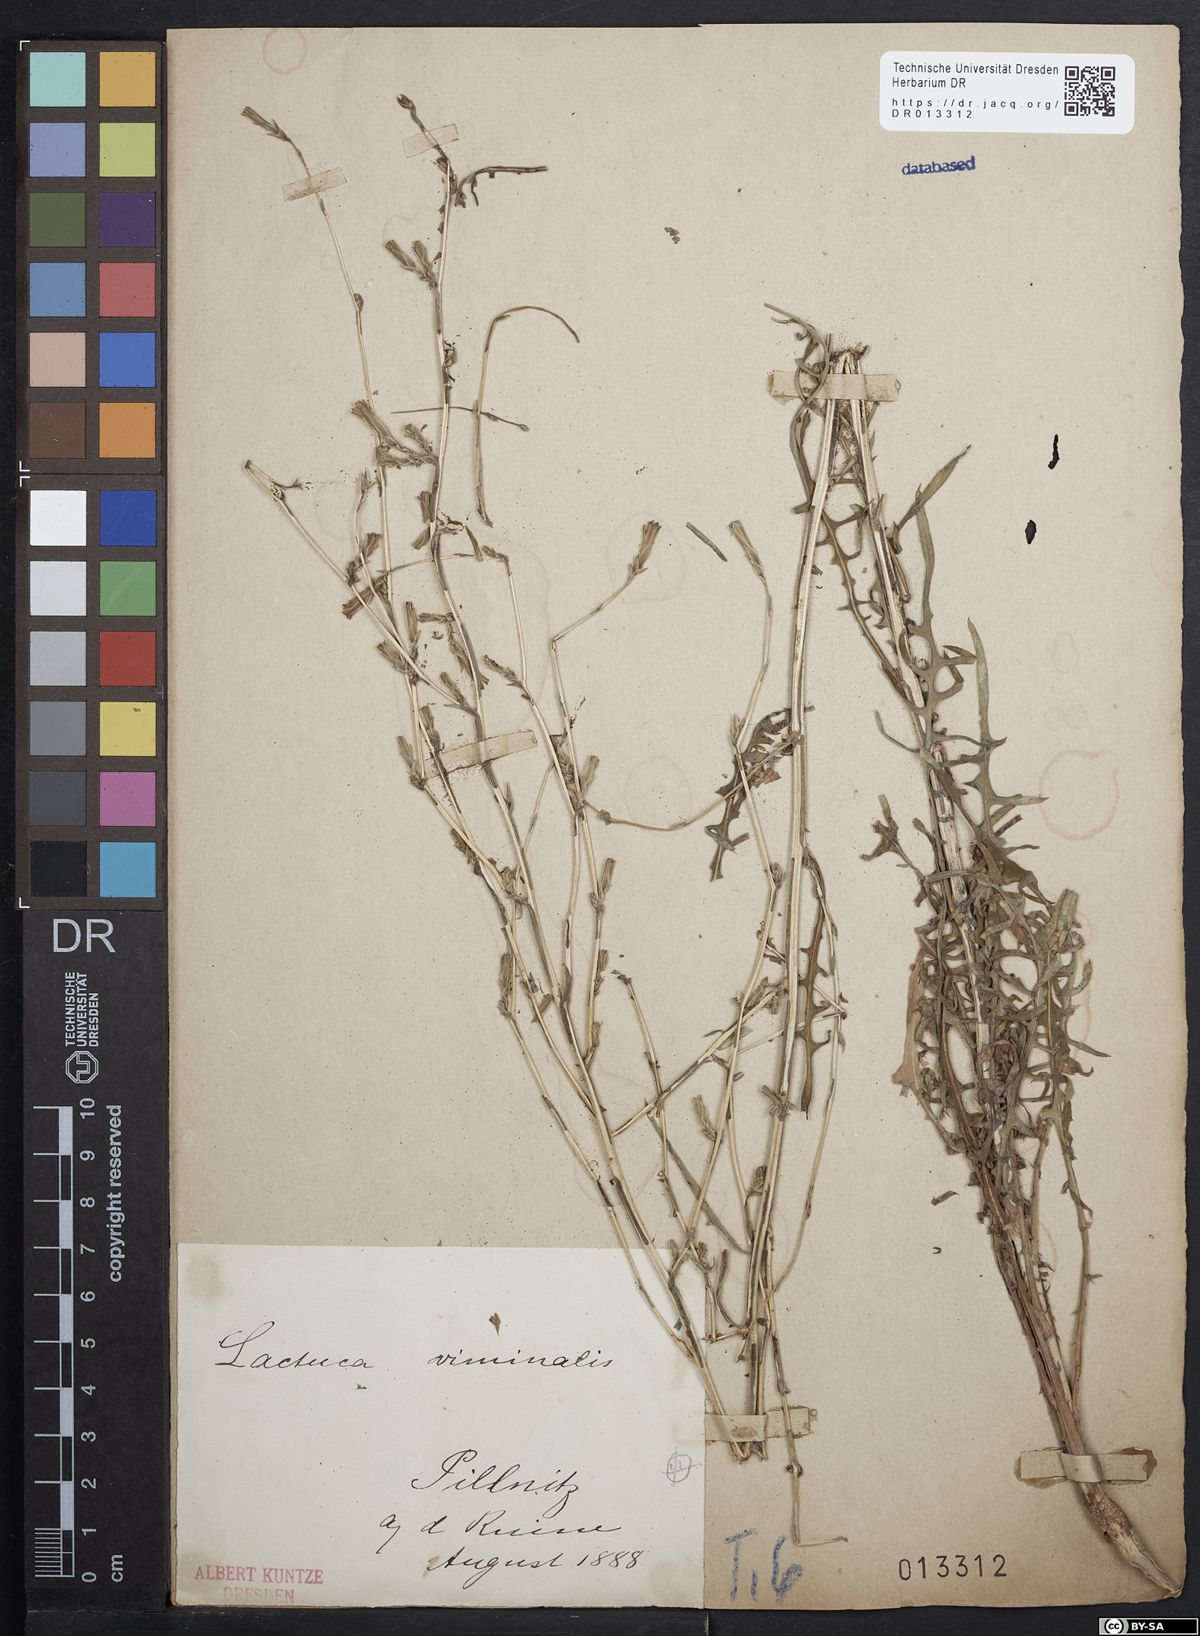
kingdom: Plantae
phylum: Tracheophyta
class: Magnoliopsida
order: Asterales
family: Asteraceae
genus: Lactuca
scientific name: Lactuca viminea
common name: Pliant lettuce
